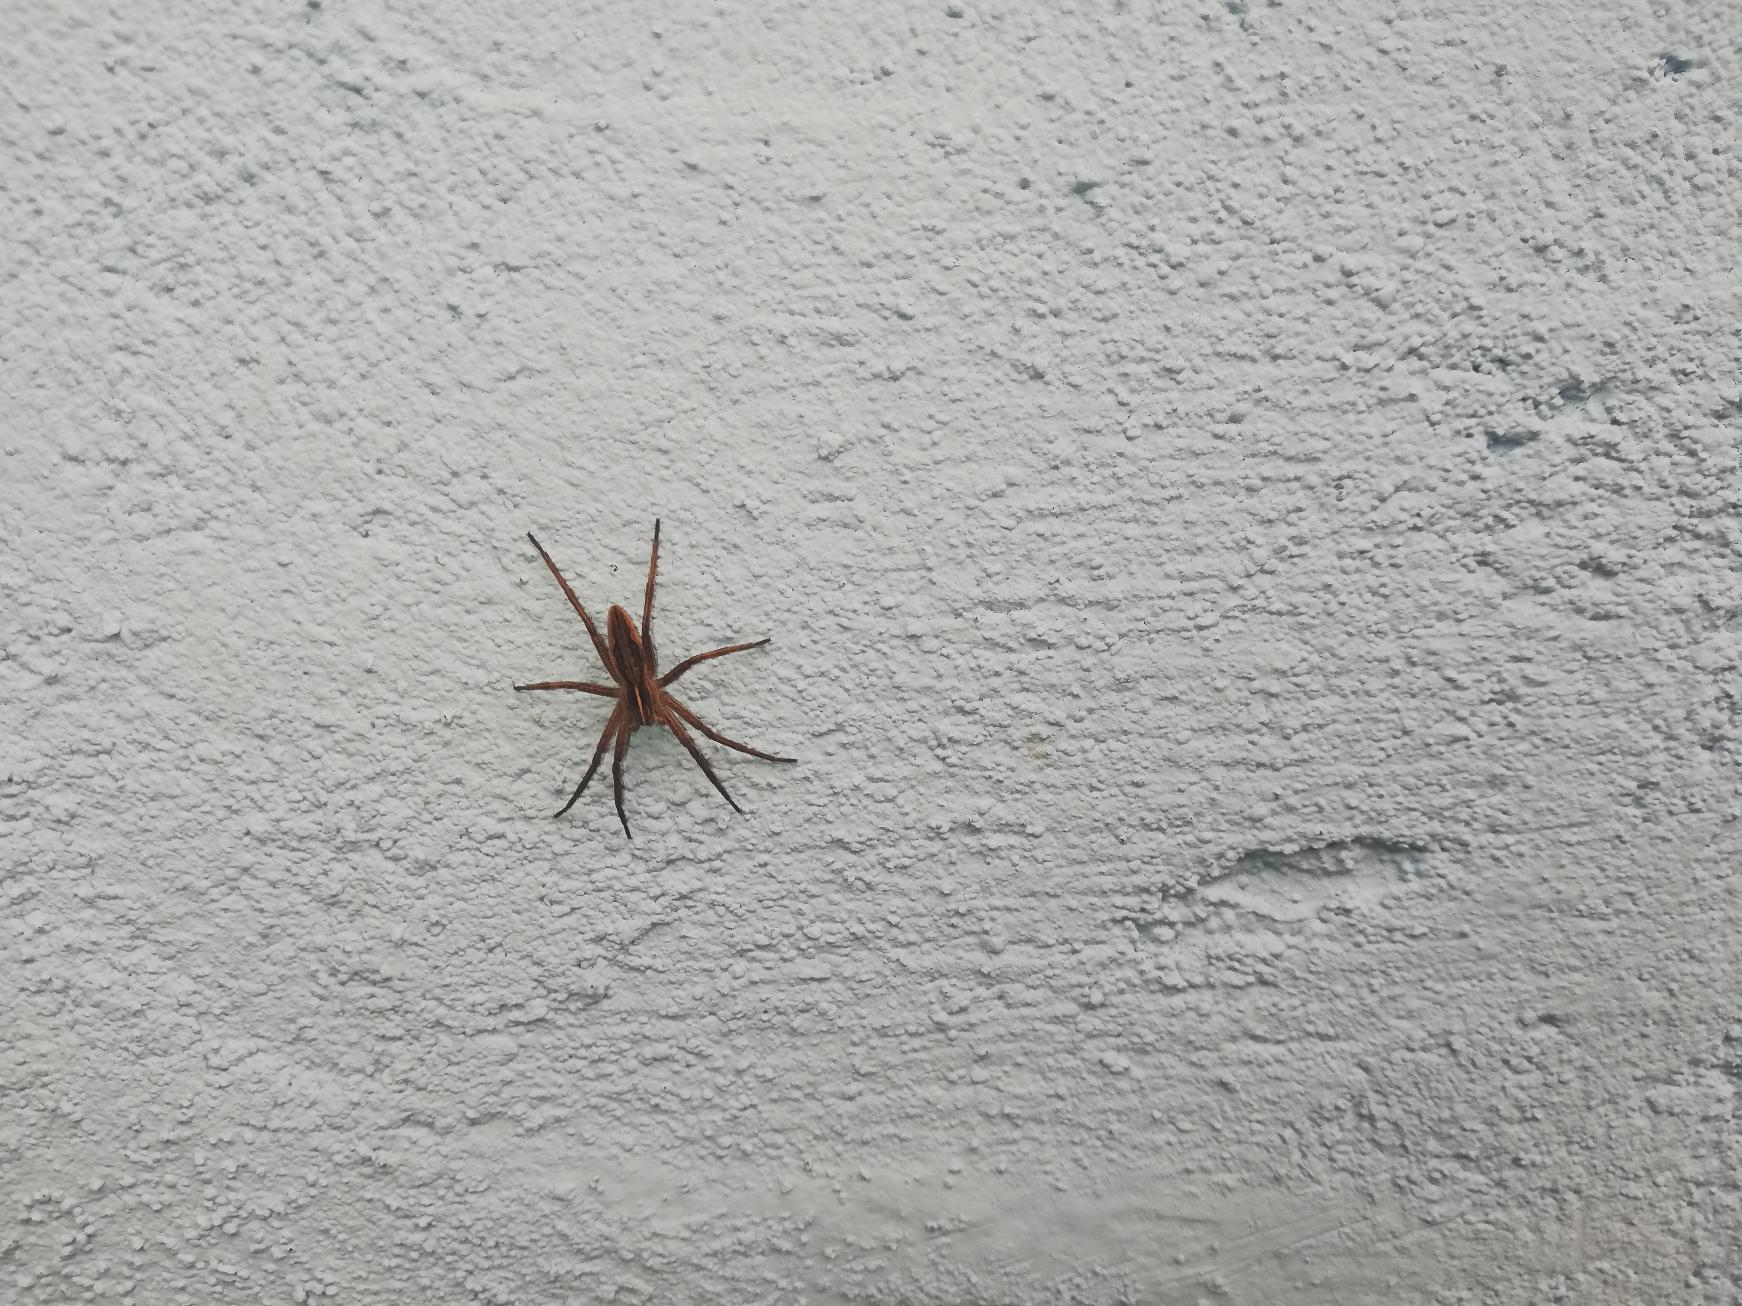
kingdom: Animalia
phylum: Arthropoda
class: Arachnida
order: Araneae
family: Pisauridae
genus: Pisaura
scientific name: Pisaura mirabilis
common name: Almindelig rovedderkop
